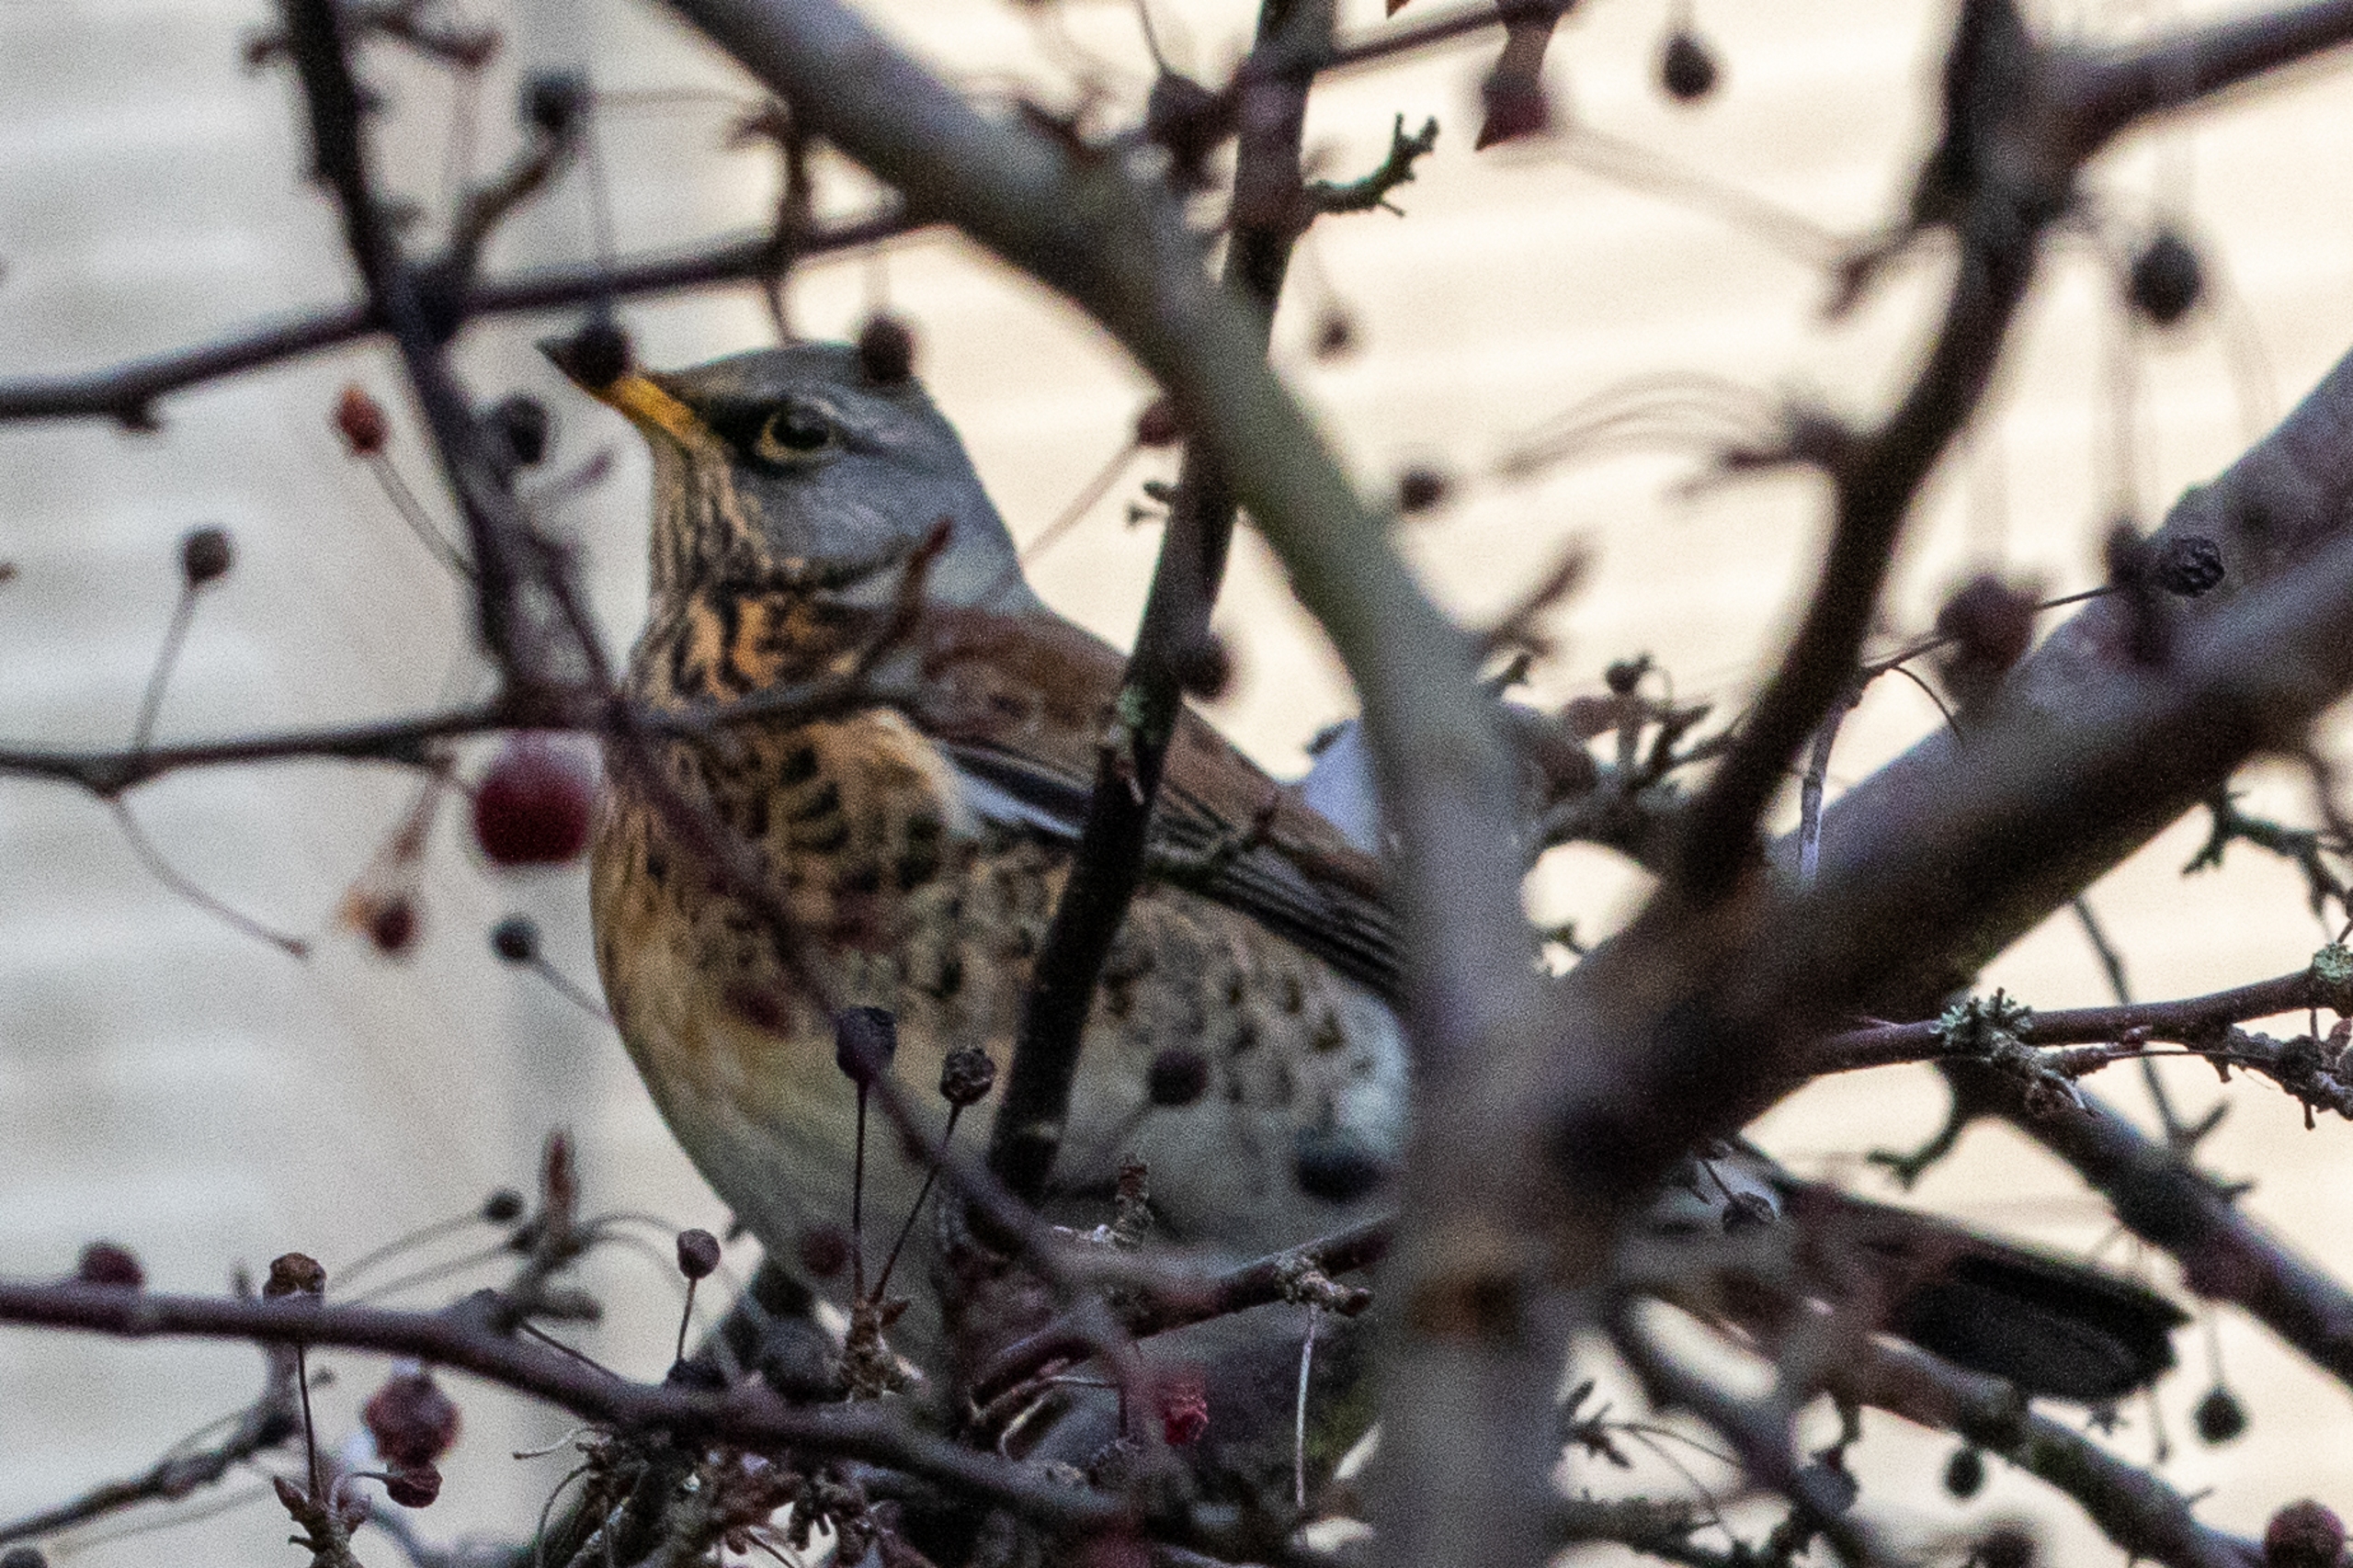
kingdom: Animalia
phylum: Chordata
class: Aves
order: Passeriformes
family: Turdidae
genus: Turdus
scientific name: Turdus pilaris
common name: Sjagger
